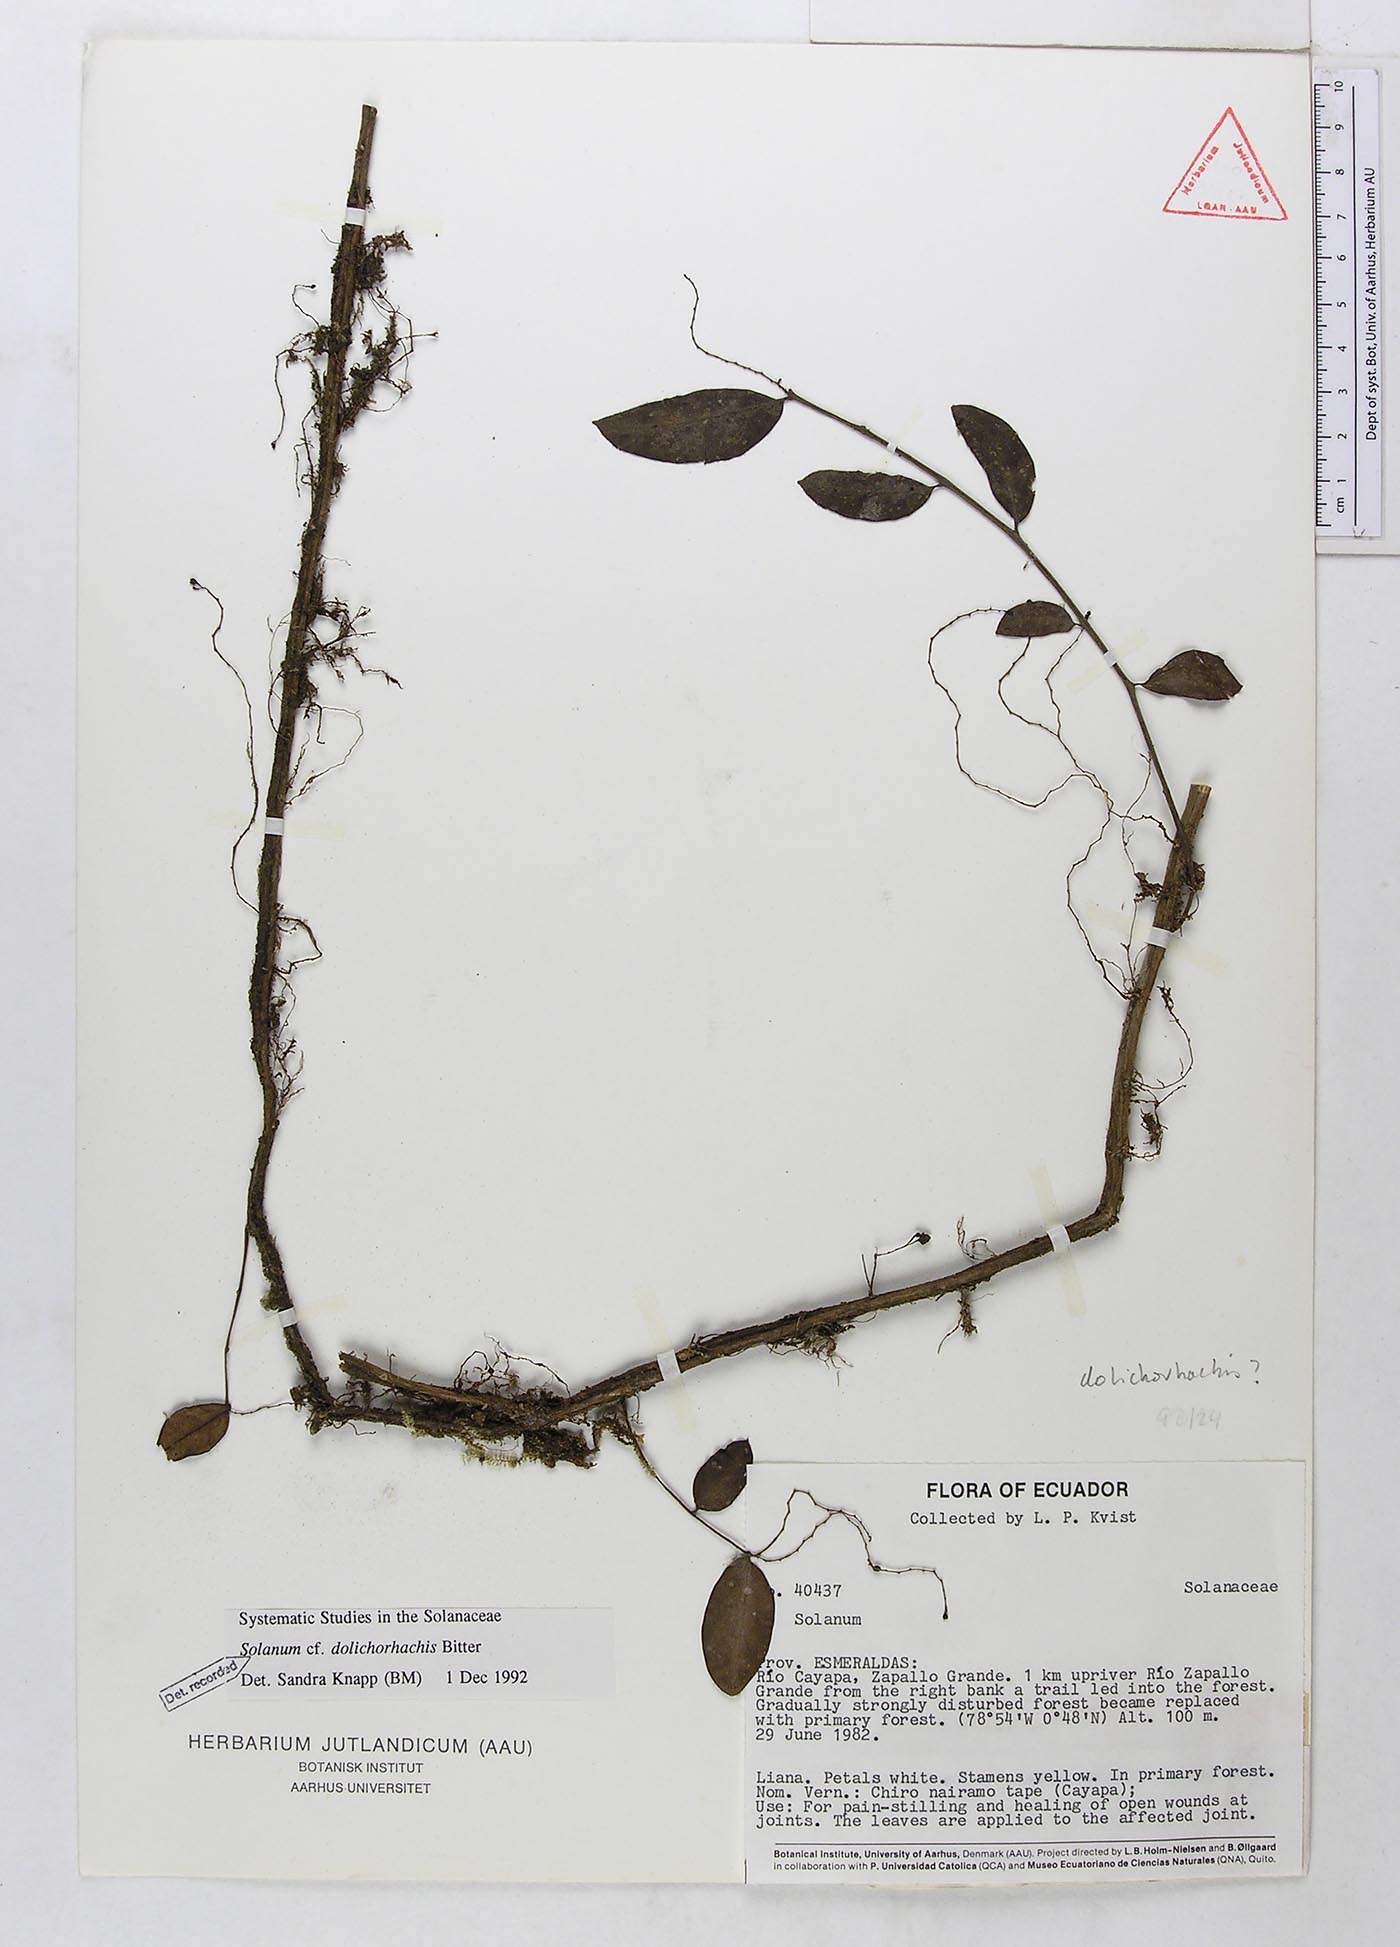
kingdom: Plantae
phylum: Tracheophyta
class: Magnoliopsida
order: Solanales
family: Solanaceae
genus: Solanum
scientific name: Solanum loxophyllum
